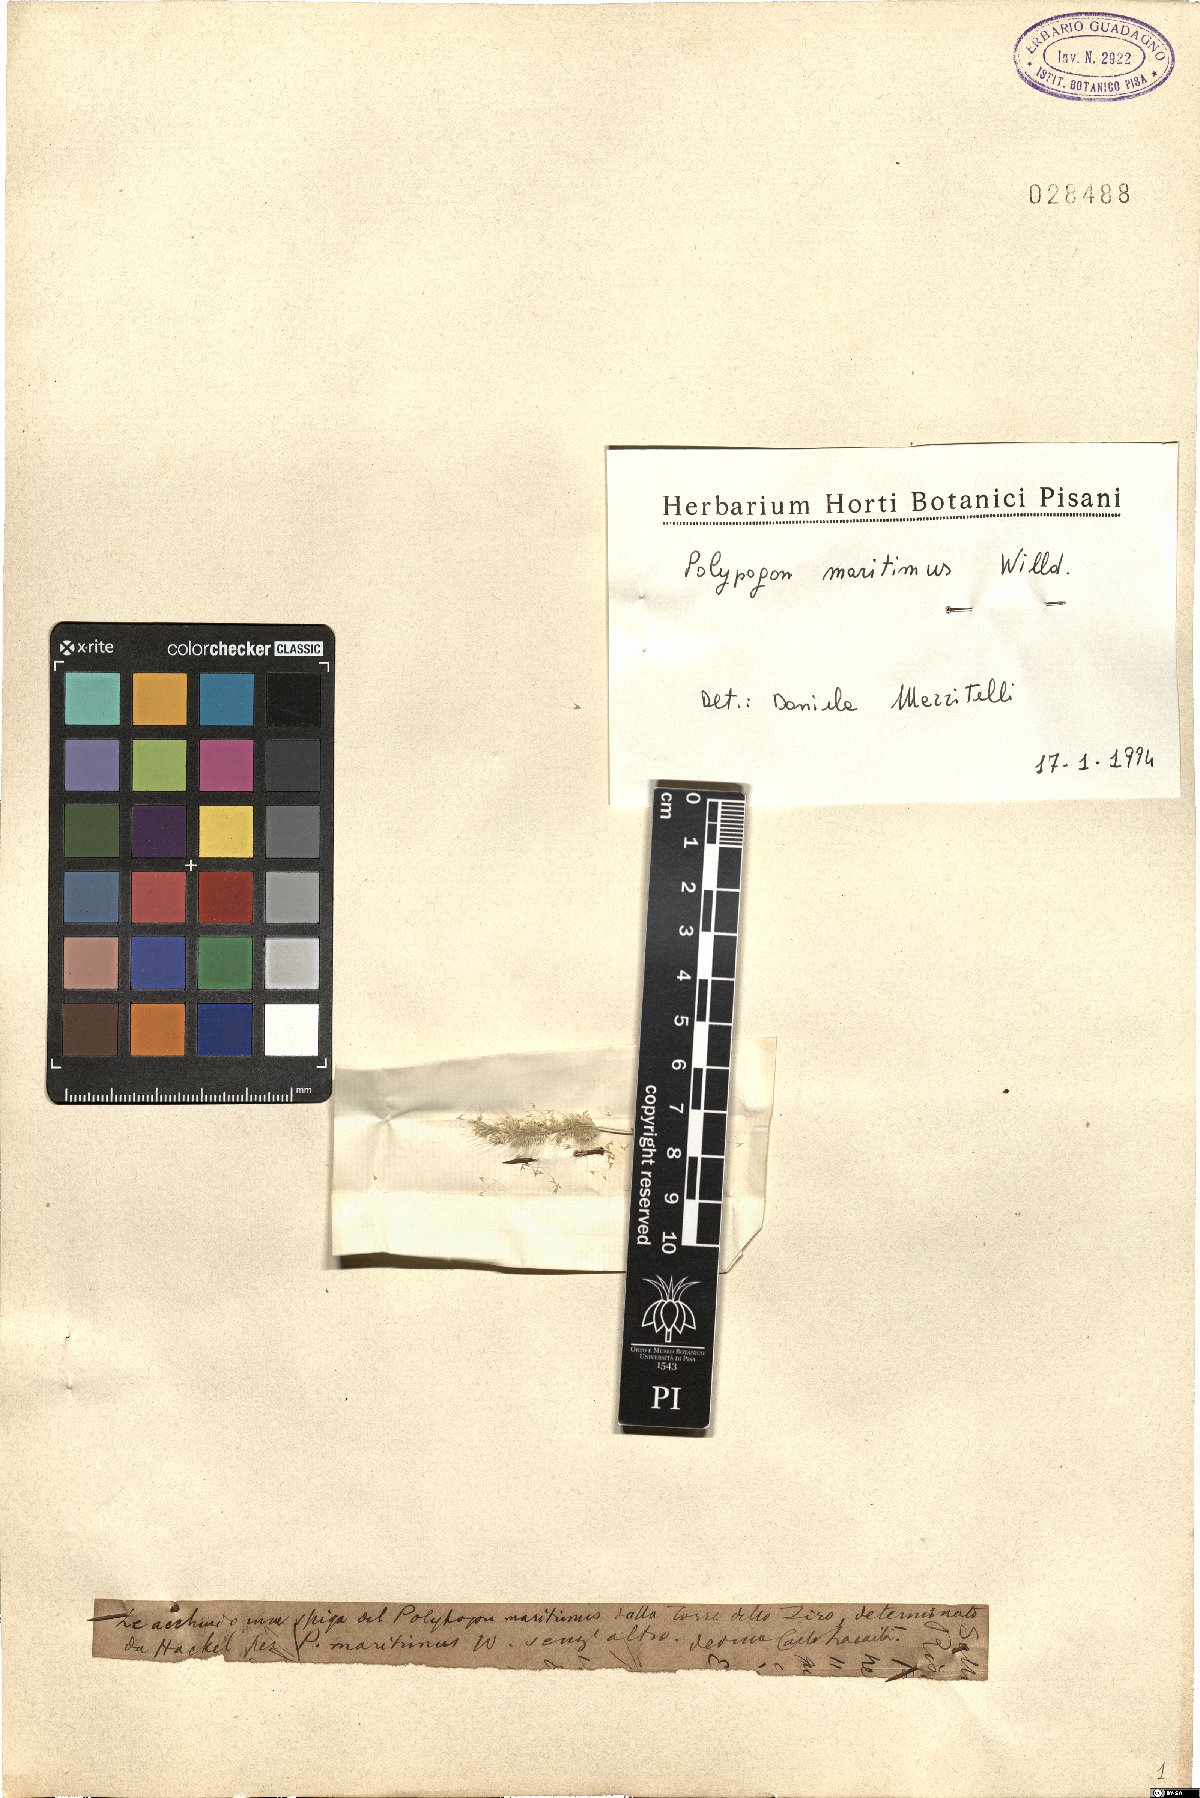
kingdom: Plantae
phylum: Tracheophyta
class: Liliopsida
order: Poales
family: Poaceae
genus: Polypogon
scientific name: Polypogon maritimus
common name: Mediterranean rabbitsfoot grass
